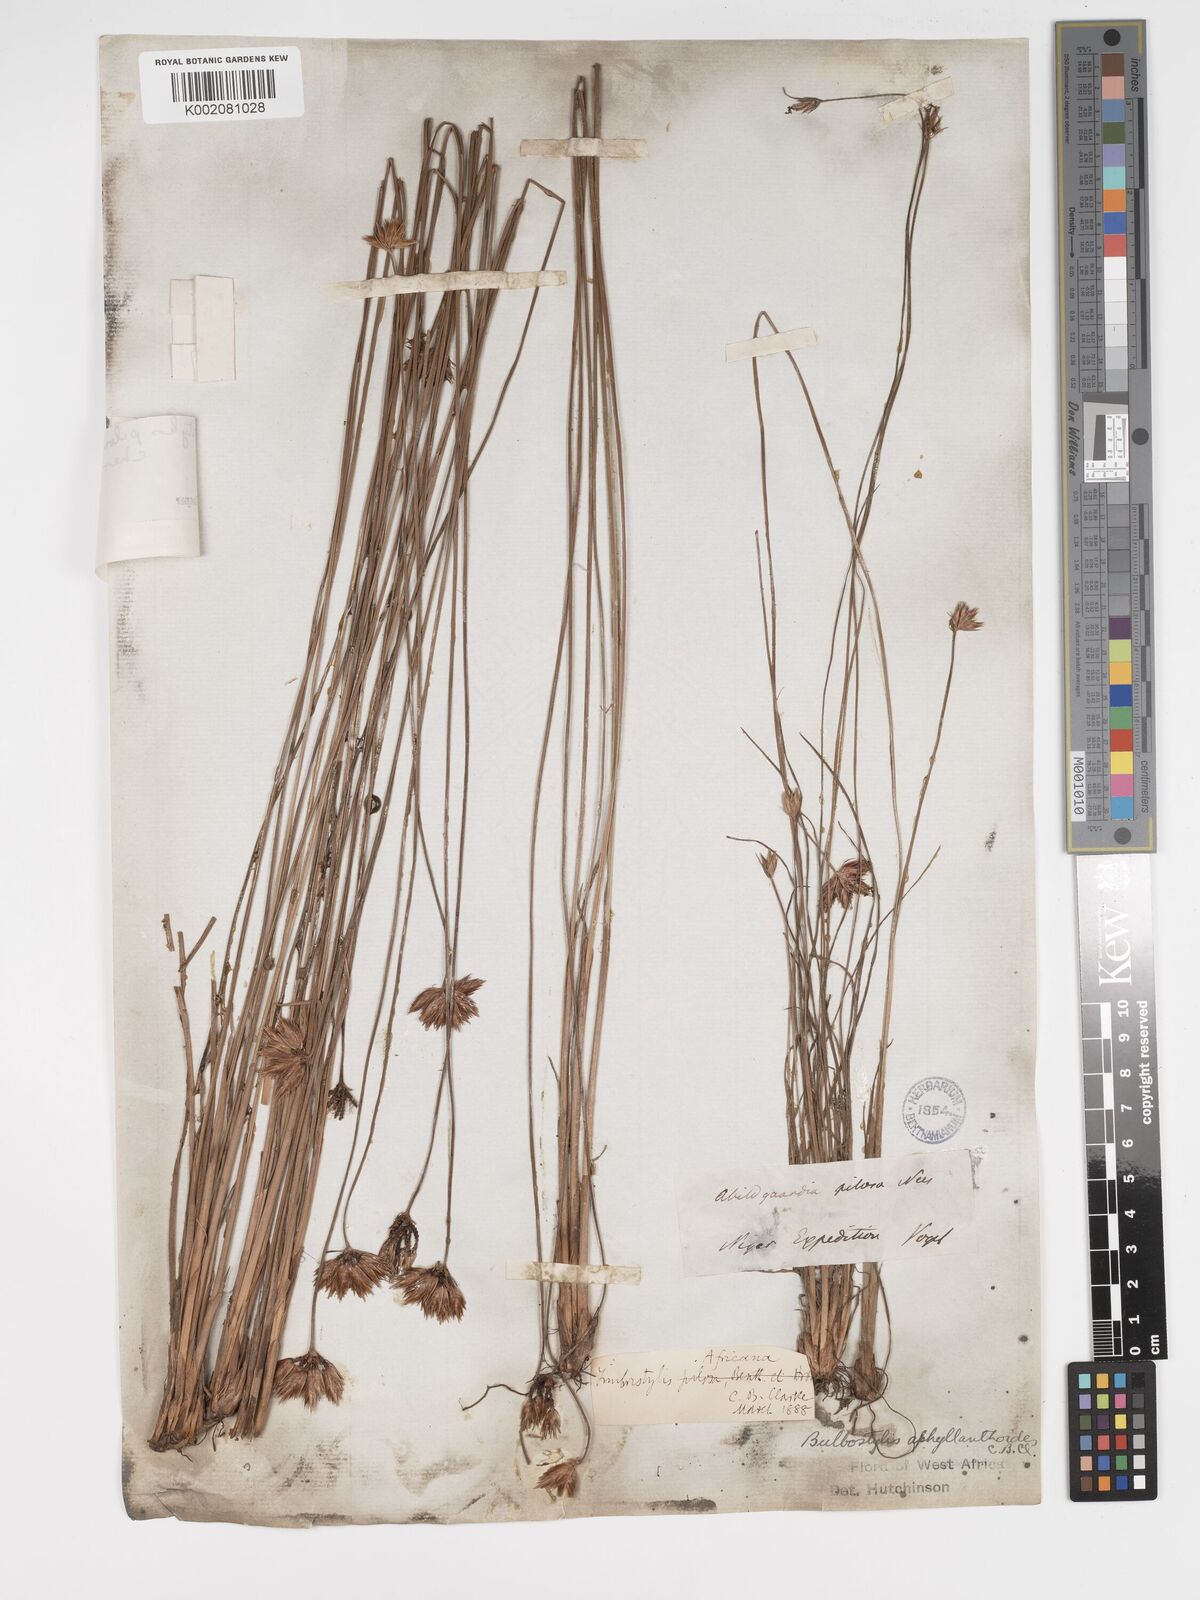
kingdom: Plantae
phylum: Tracheophyta
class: Liliopsida
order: Poales
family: Cyperaceae
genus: Bulbostylis
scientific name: Bulbostylis pilosa
